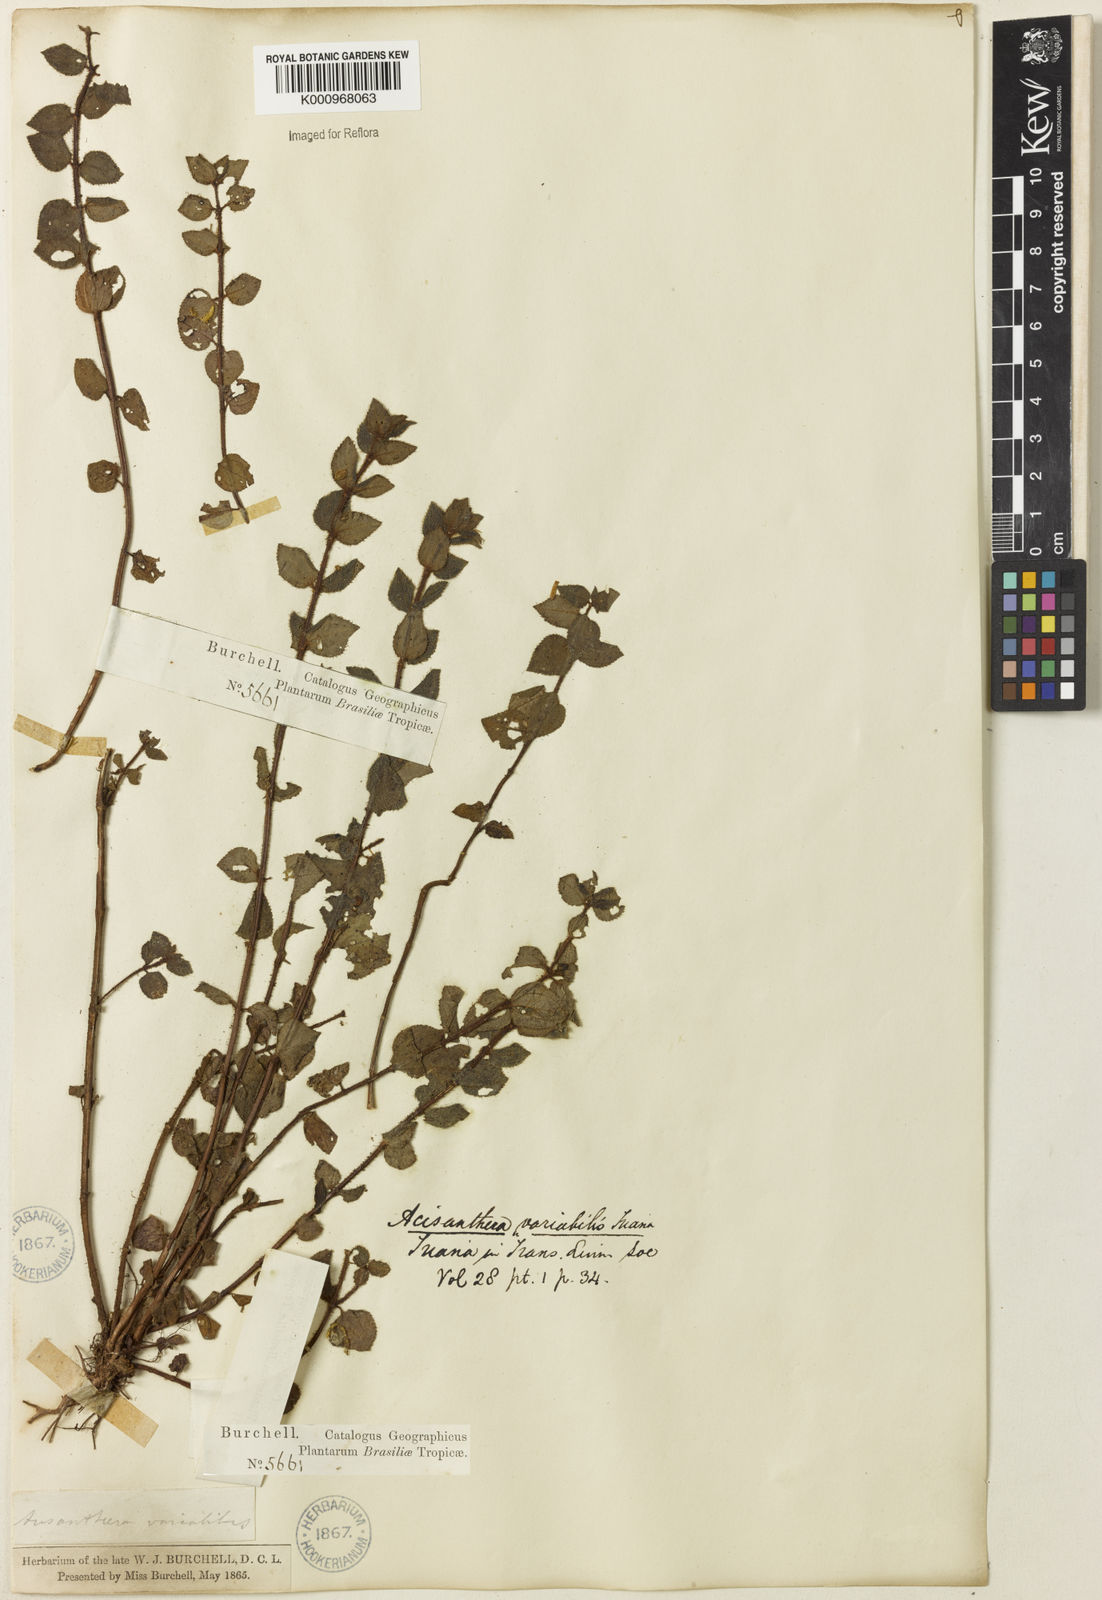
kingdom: Plantae
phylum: Tracheophyta
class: Magnoliopsida
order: Myrtales
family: Melastomataceae
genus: Acisanthera
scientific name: Acisanthera variabilis
